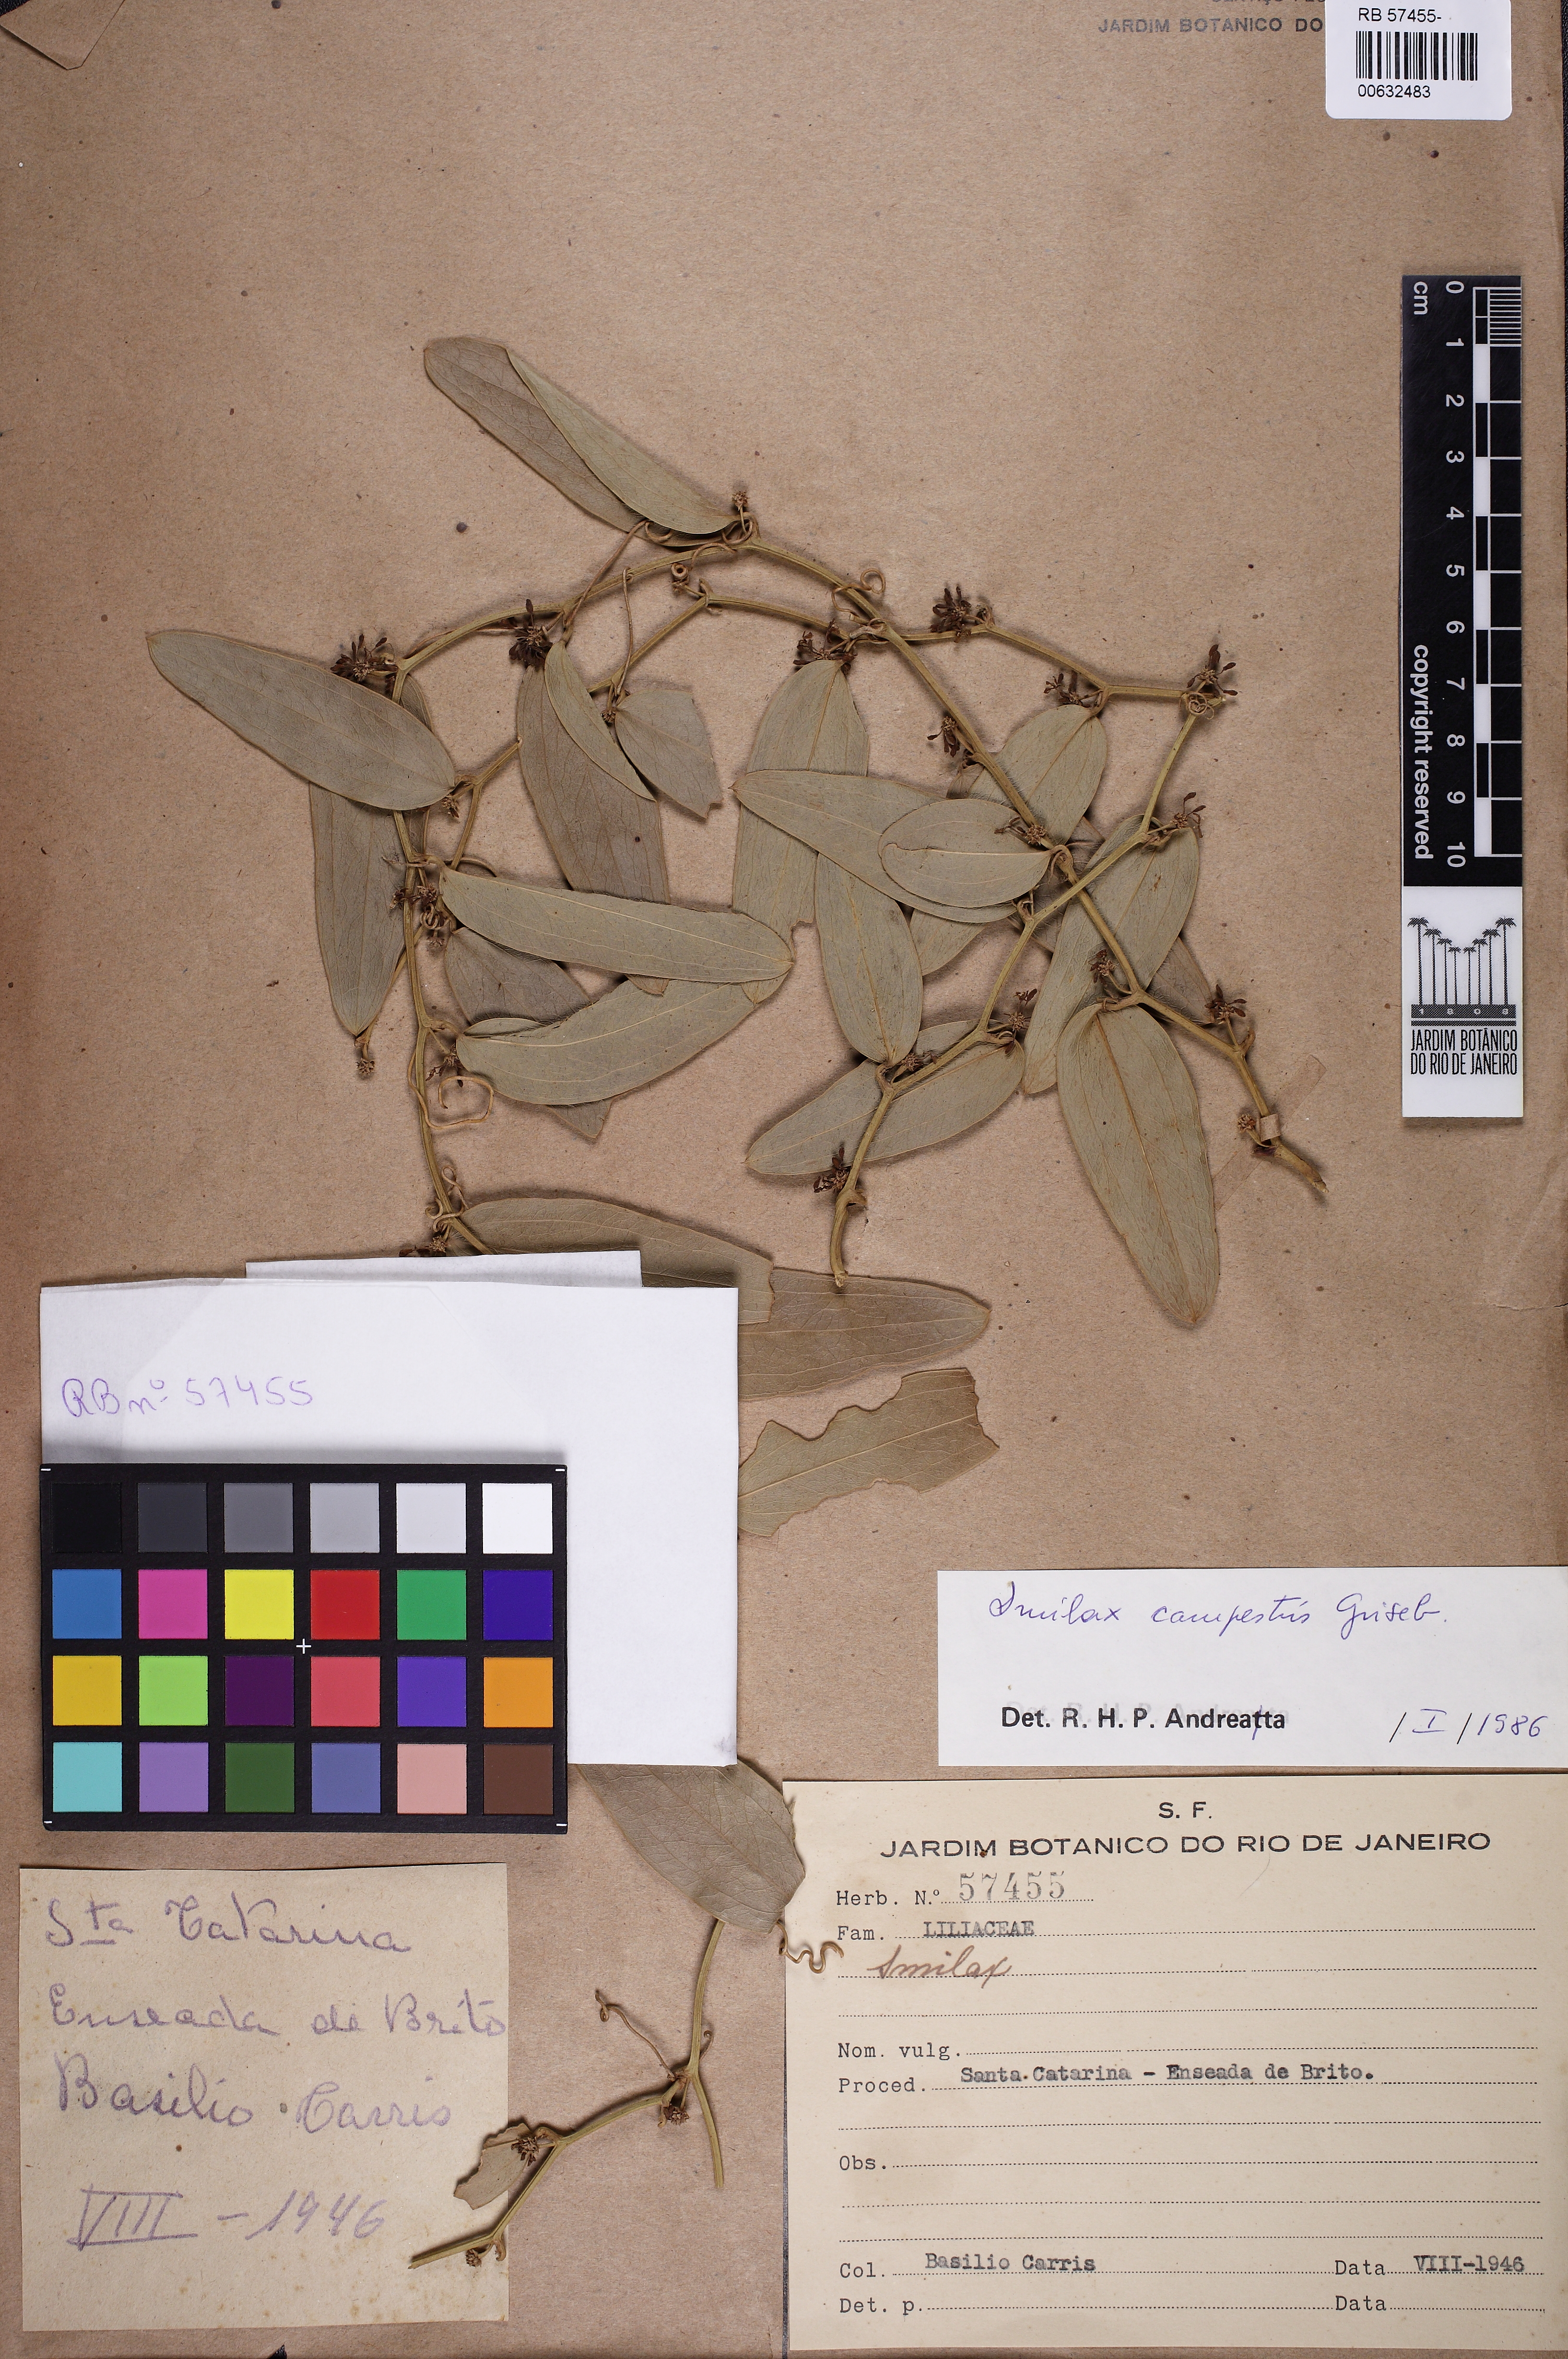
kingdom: Plantae
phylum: Tracheophyta
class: Liliopsida
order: Liliales
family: Smilacaceae
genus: Smilax
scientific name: Smilax campestris
